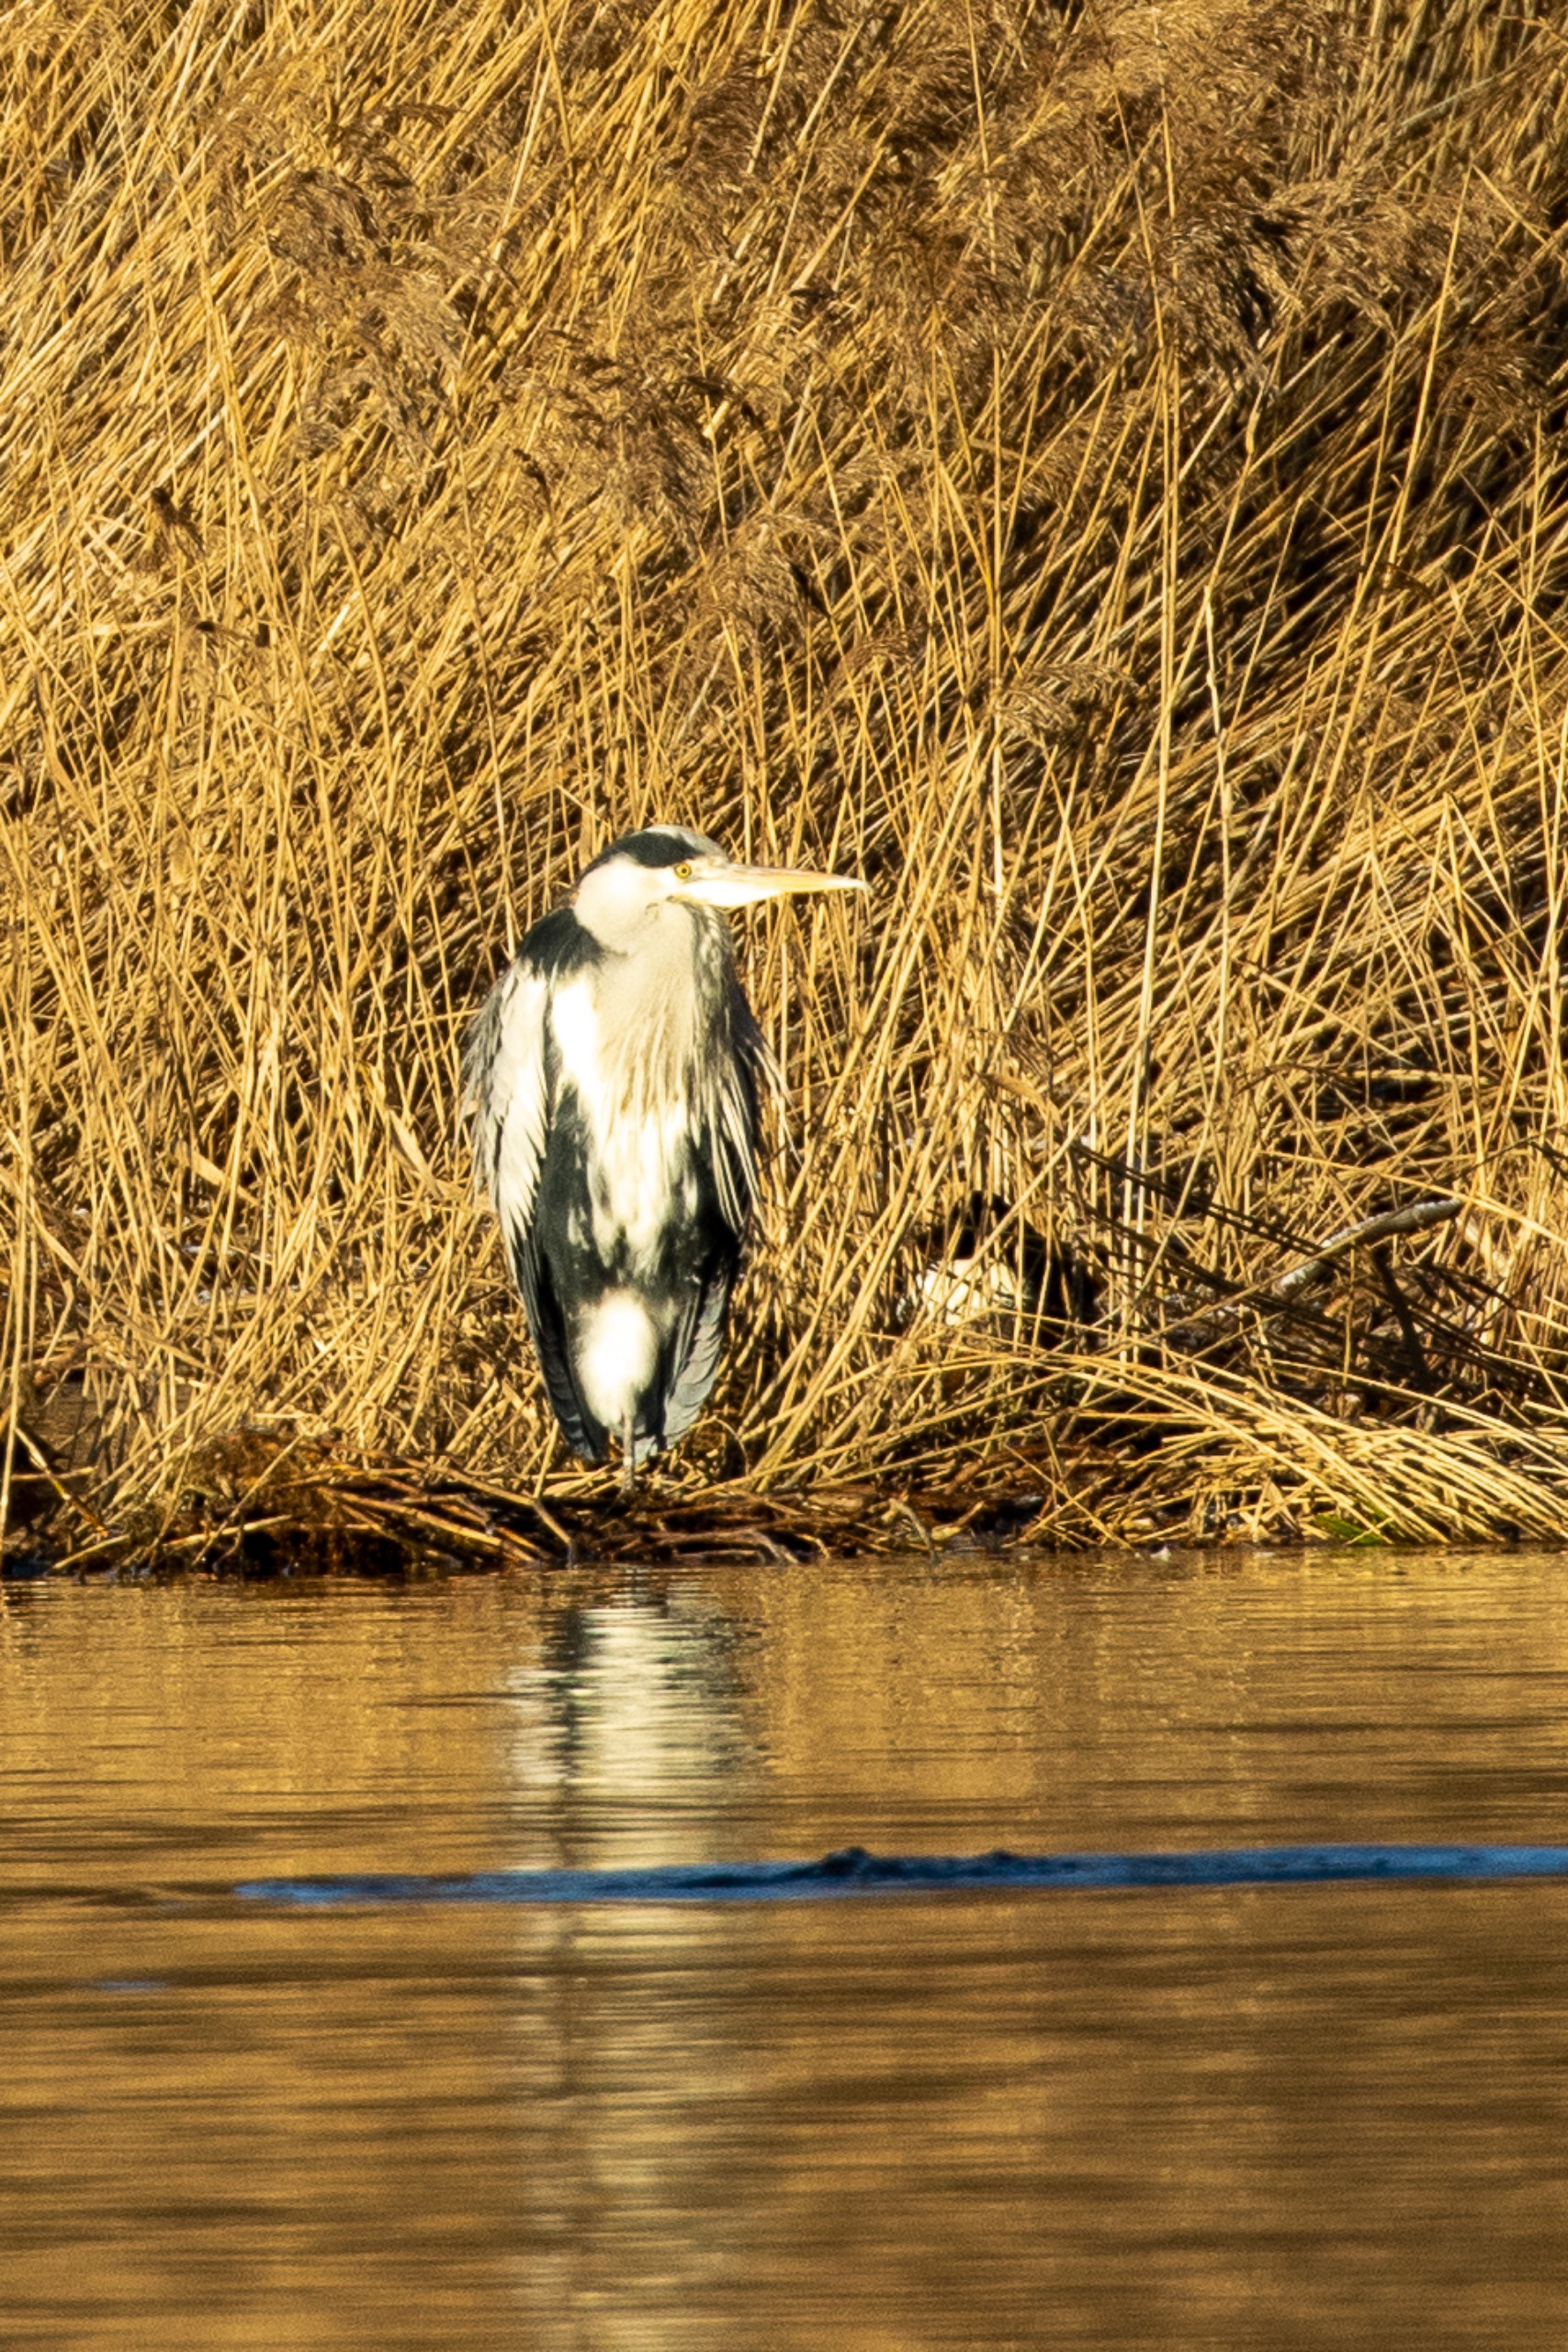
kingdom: Animalia
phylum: Chordata
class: Aves
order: Pelecaniformes
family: Ardeidae
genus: Ardea
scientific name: Ardea cinerea
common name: Fiskehejre
